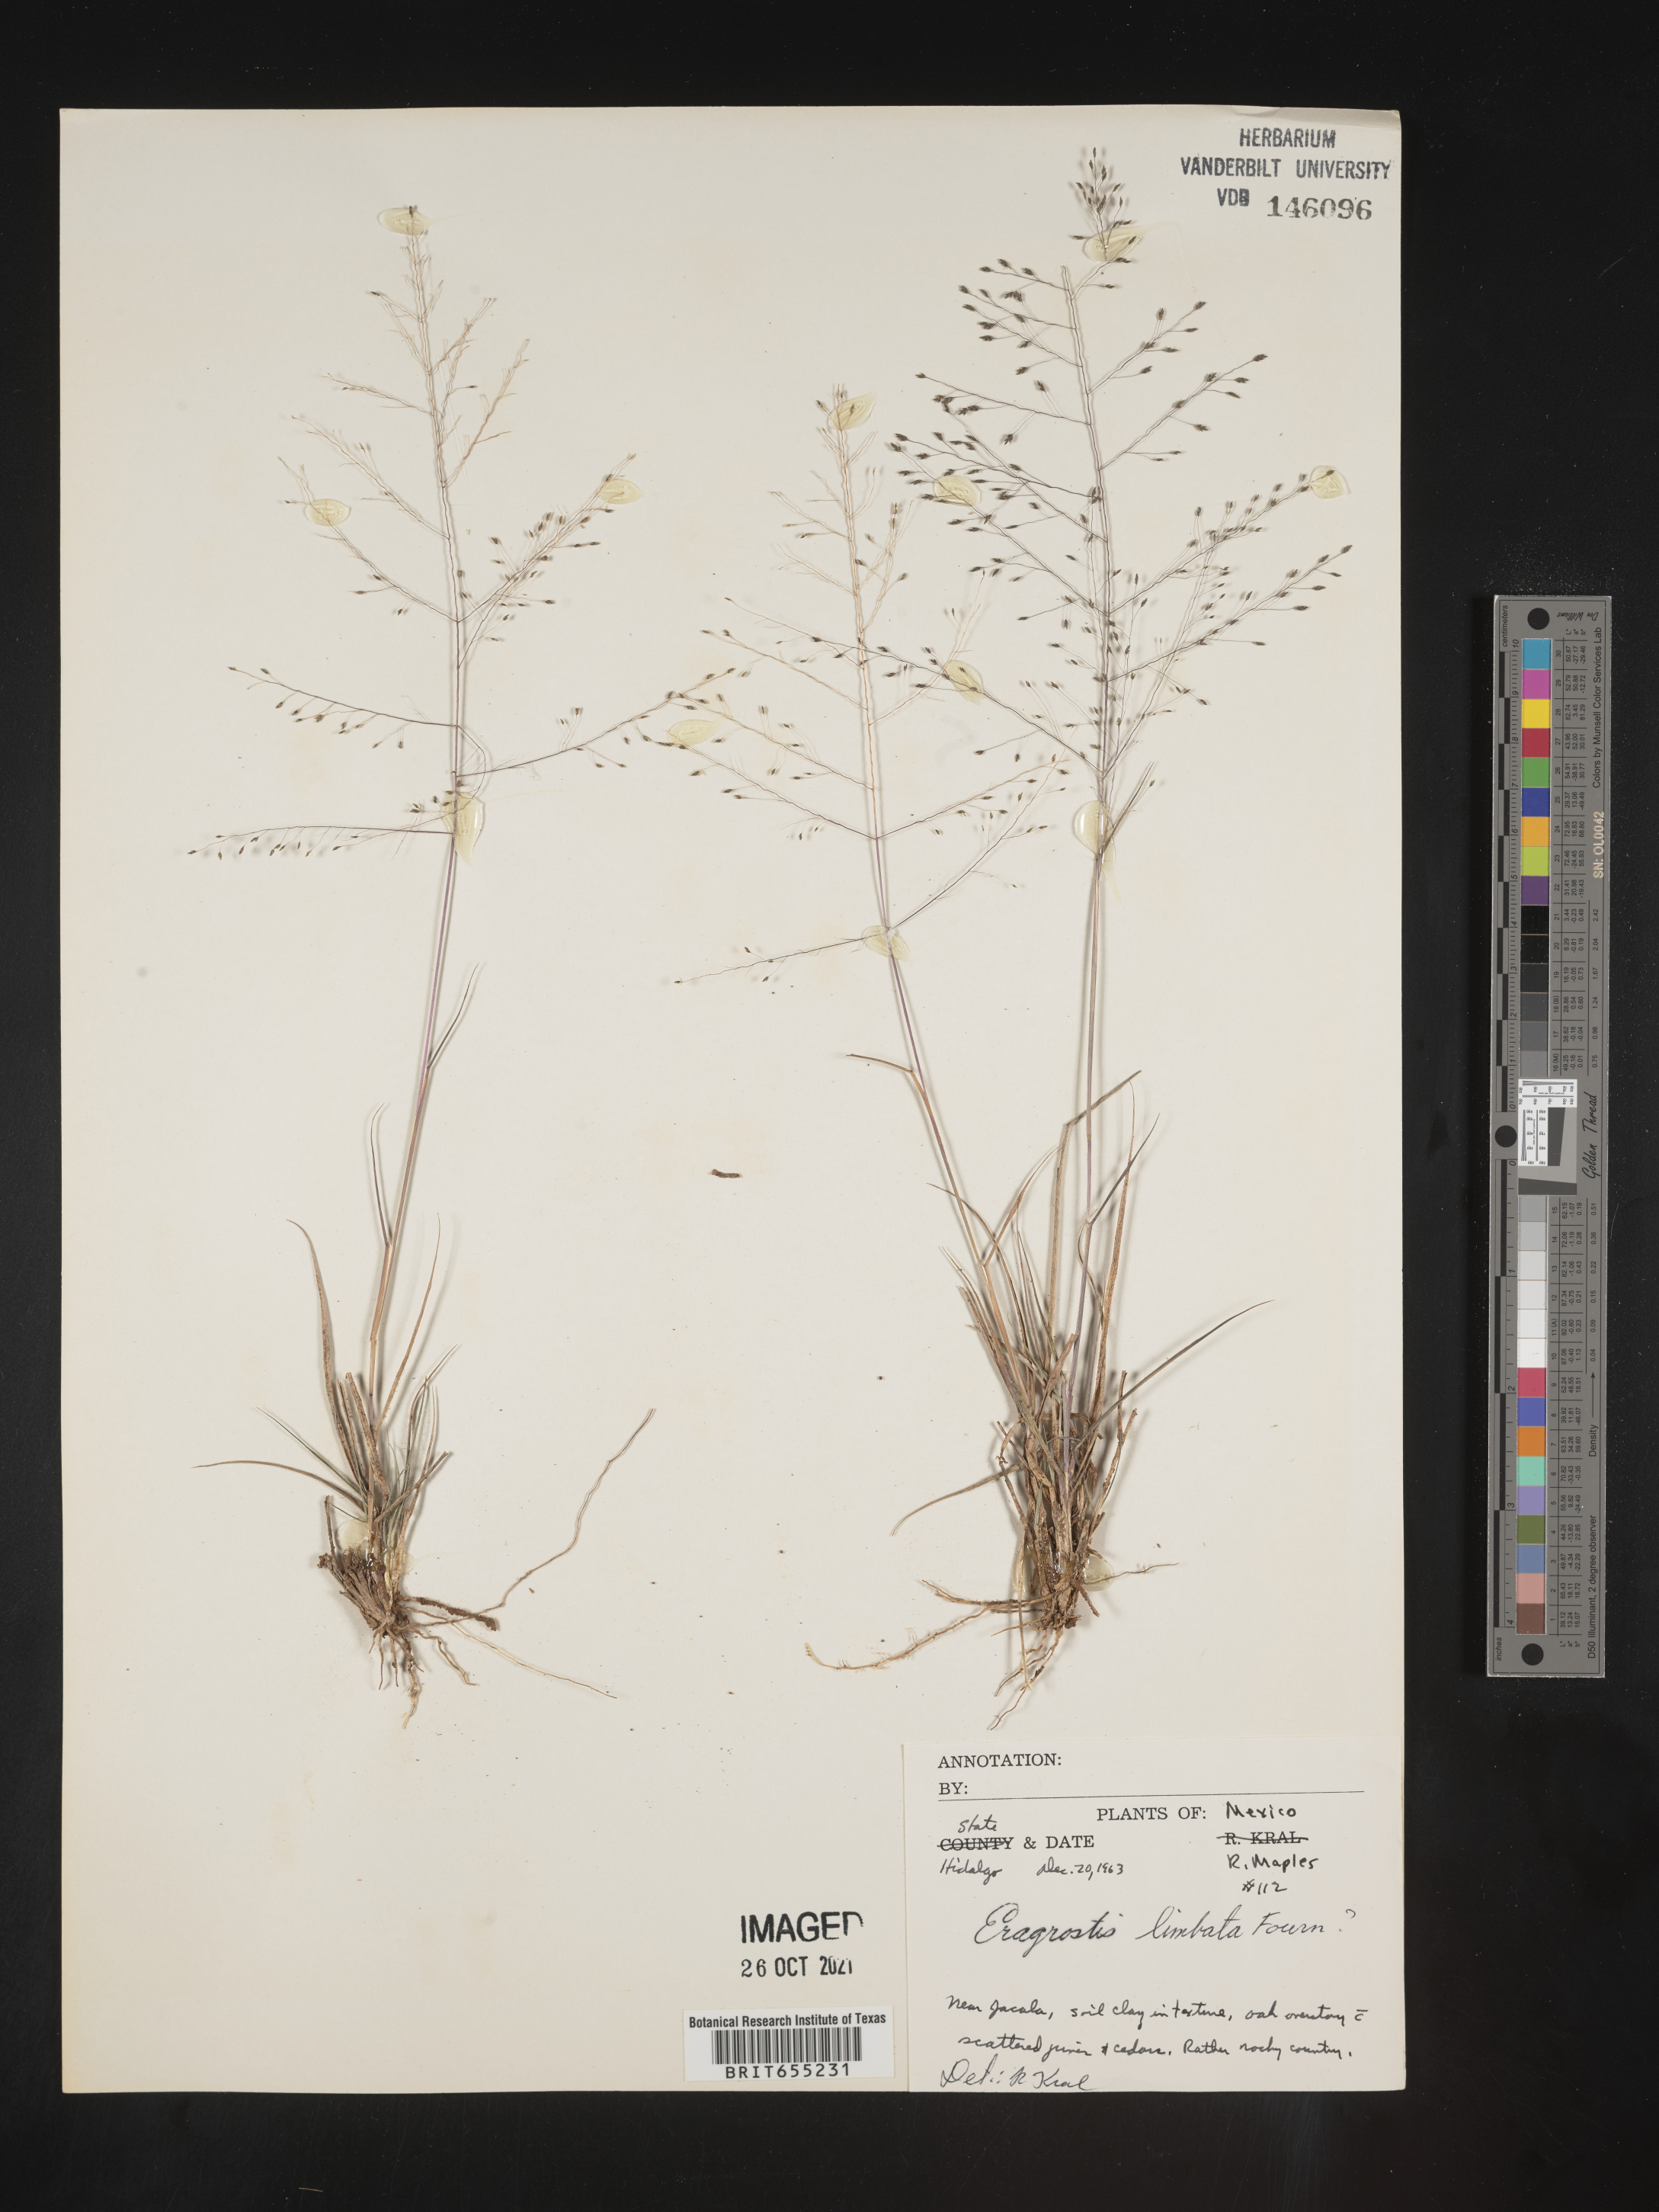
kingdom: Plantae
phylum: Tracheophyta
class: Liliopsida
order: Poales
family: Poaceae
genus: Eragrostis
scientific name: Eragrostis
